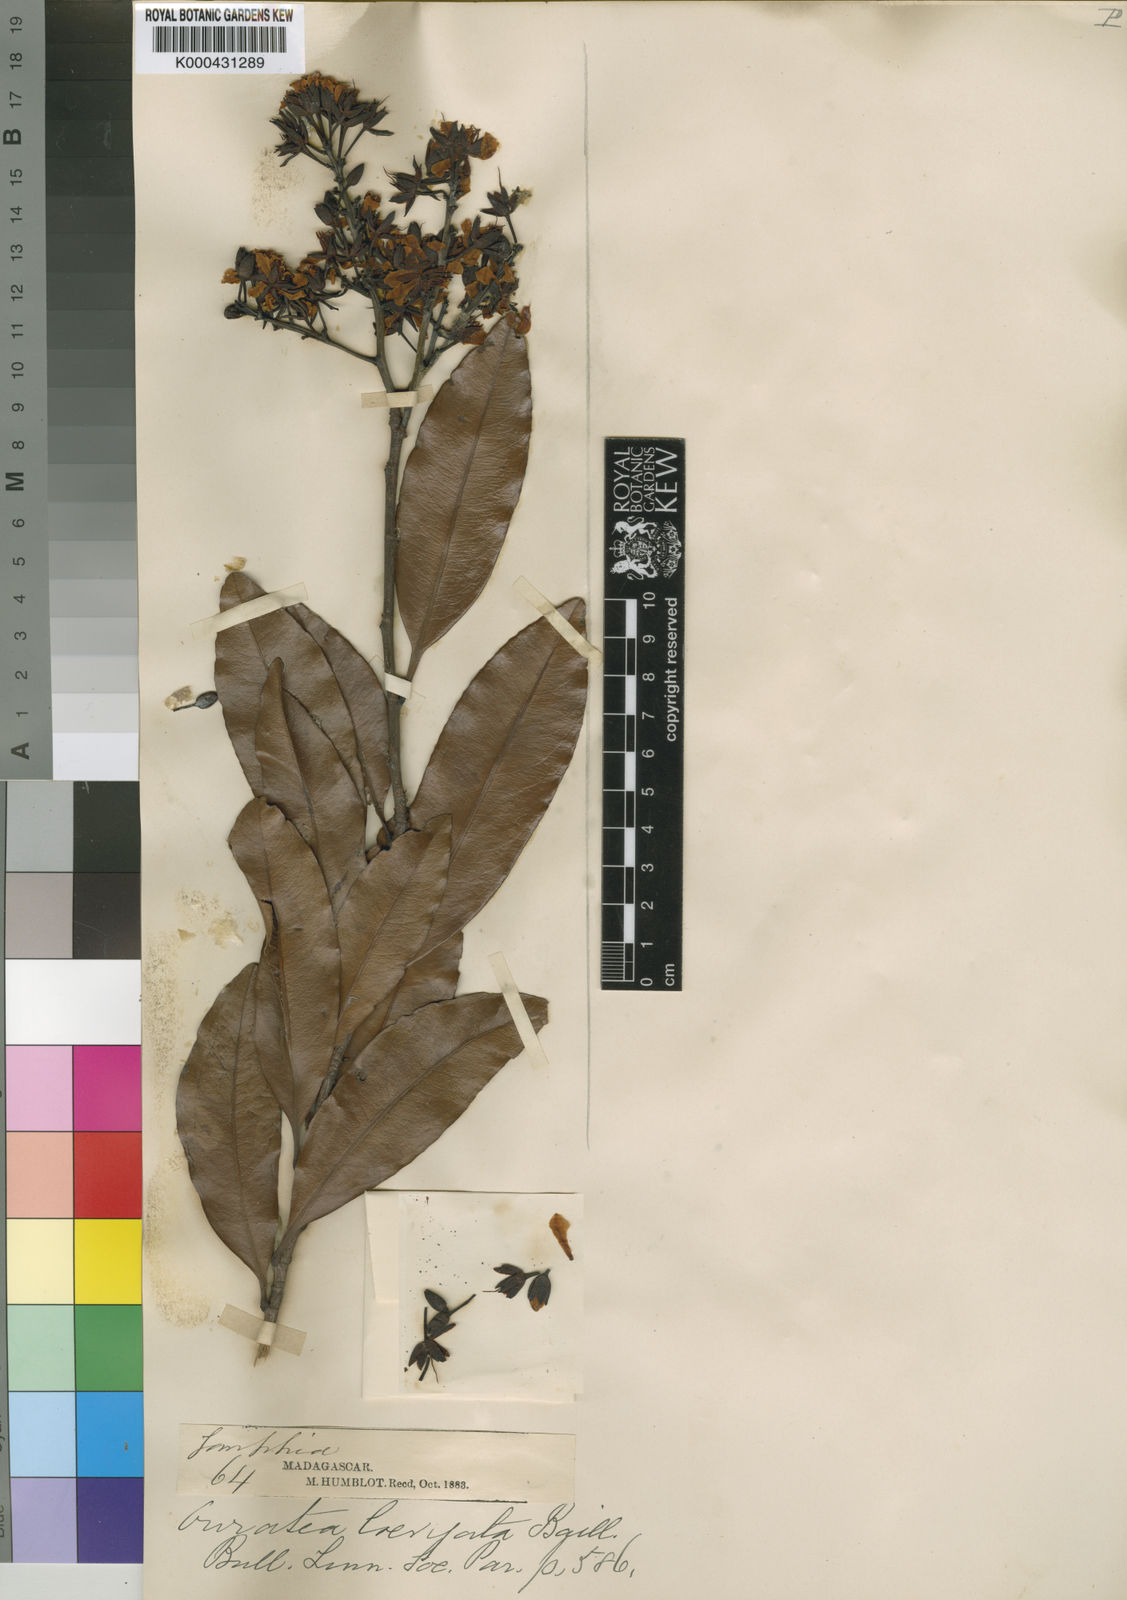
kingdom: Plantae
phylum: Tracheophyta
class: Magnoliopsida
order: Malpighiales
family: Ochnaceae
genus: Gomphia
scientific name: Gomphia obtusifolia
